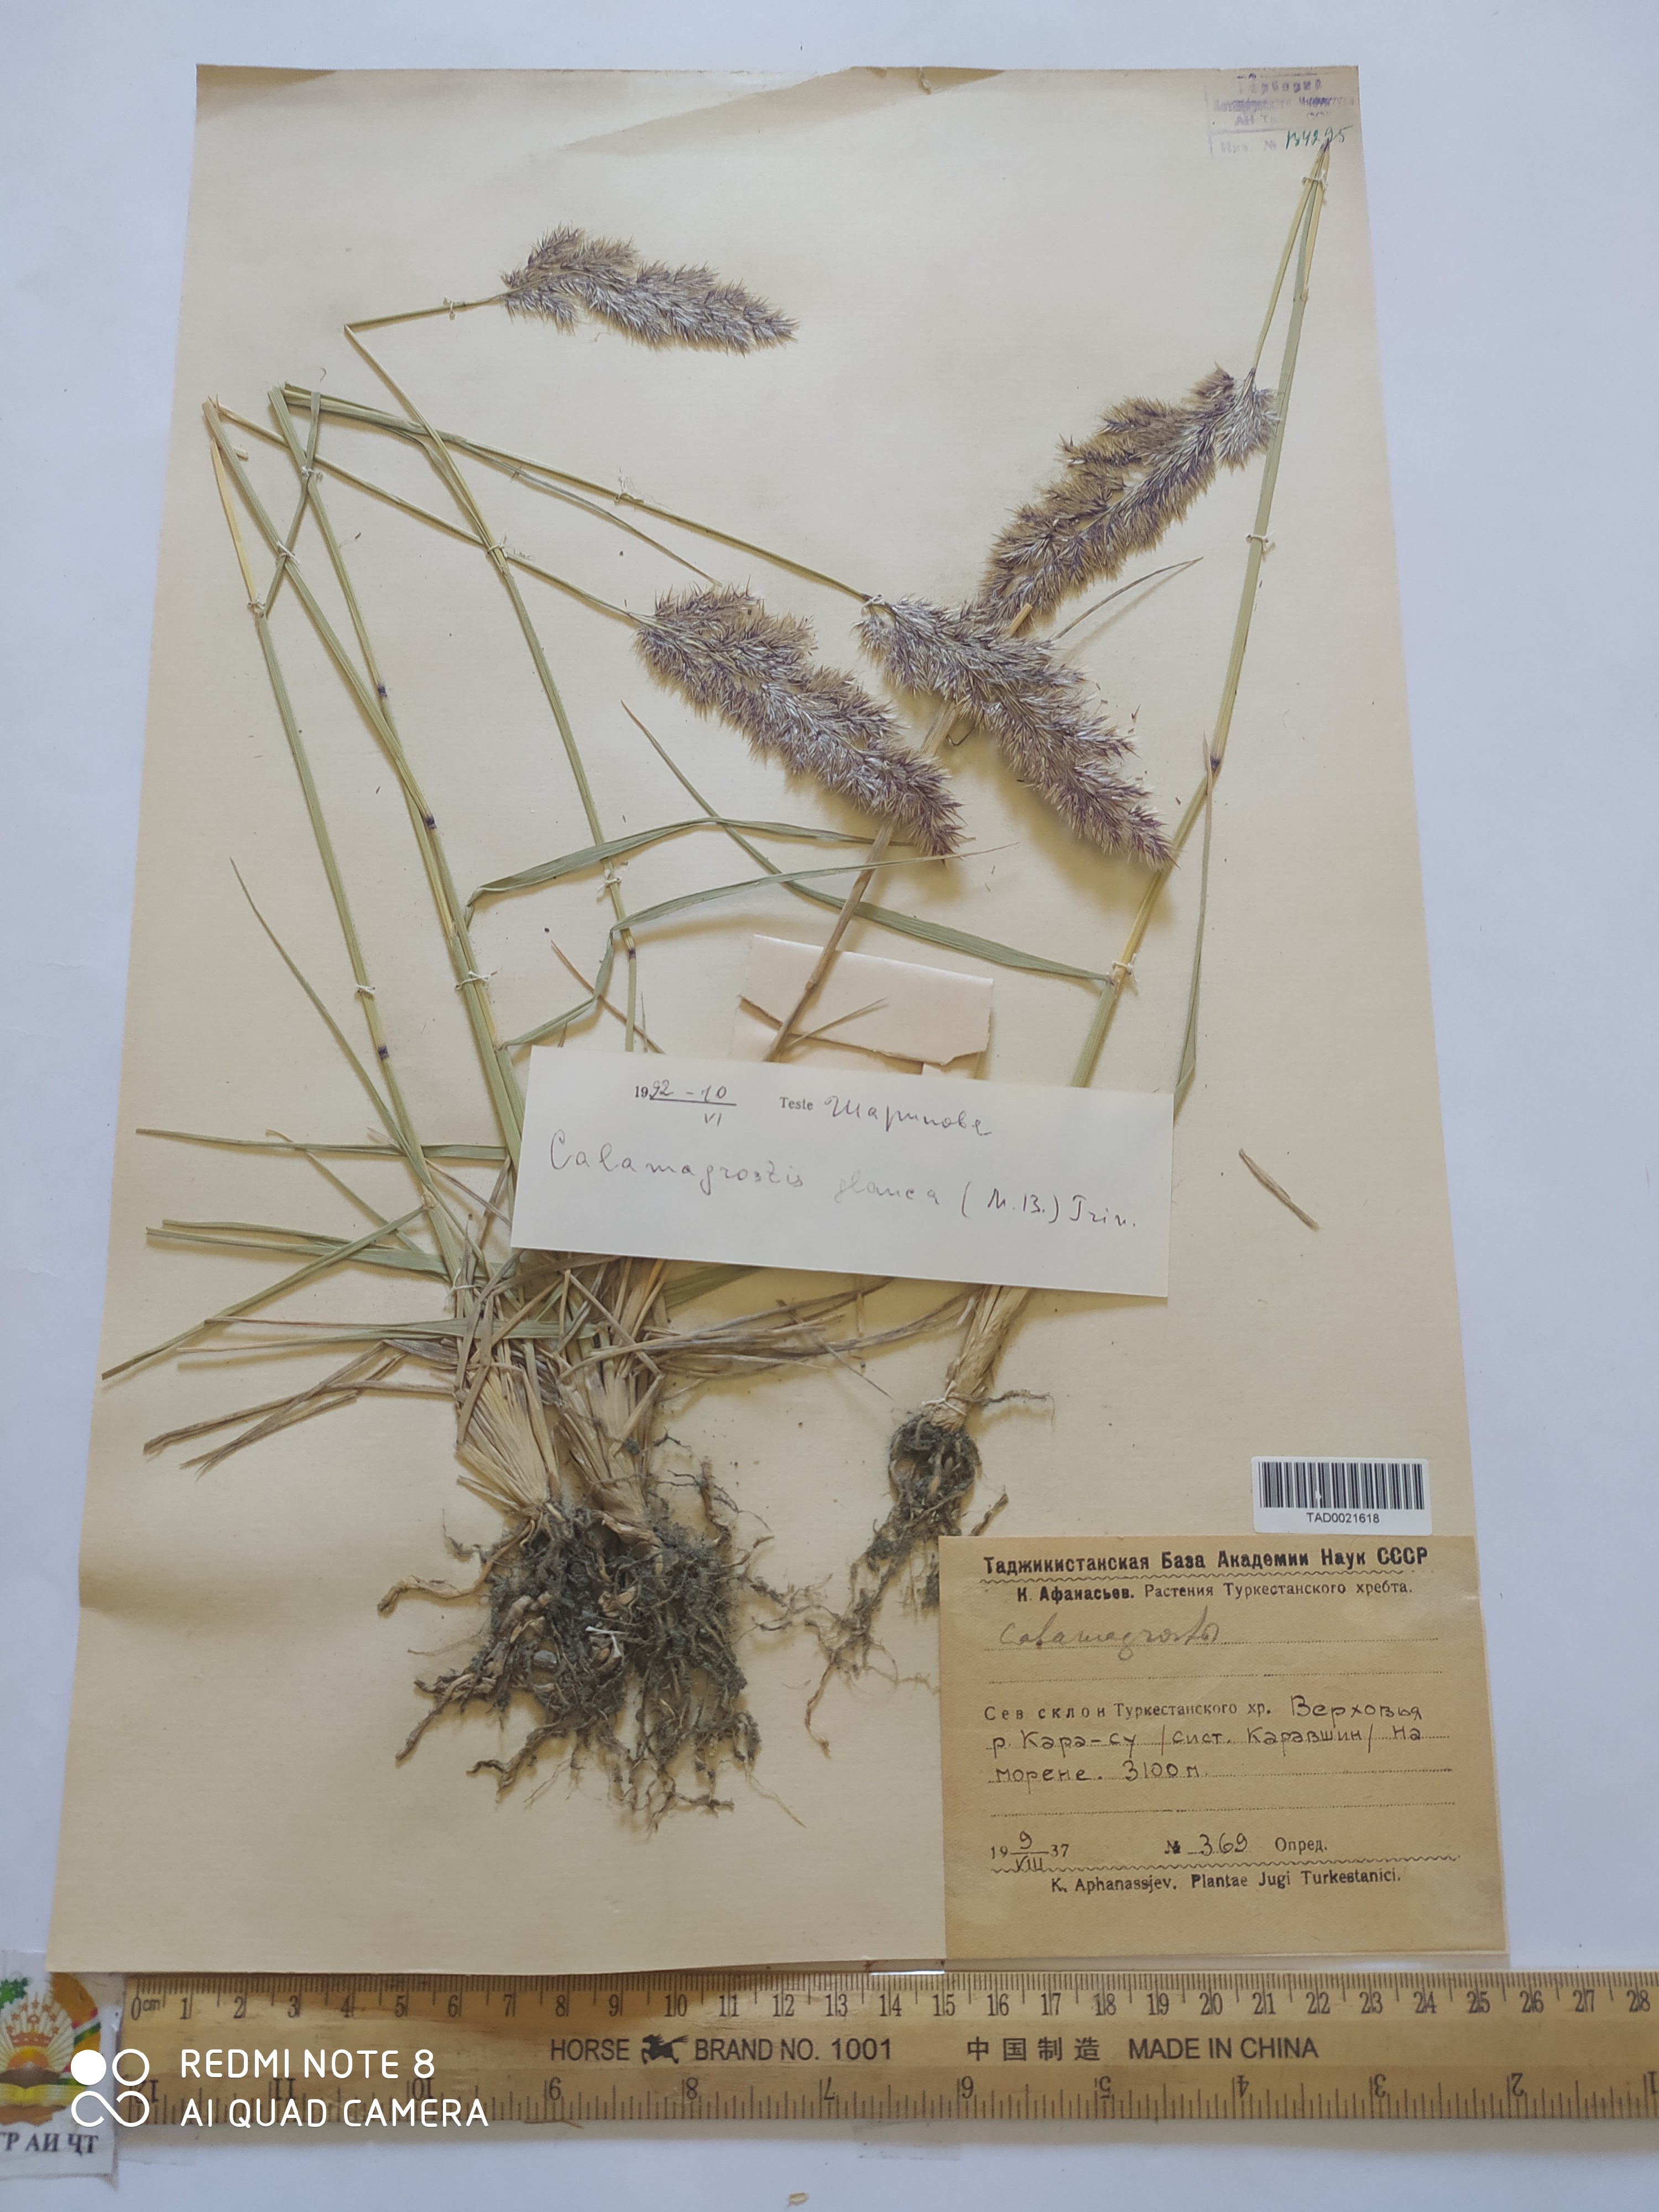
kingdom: Plantae
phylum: Tracheophyta
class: Liliopsida
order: Poales
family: Poaceae
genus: Calamagrostis
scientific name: Calamagrostis pseudophragmites
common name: Coastal small-reed
